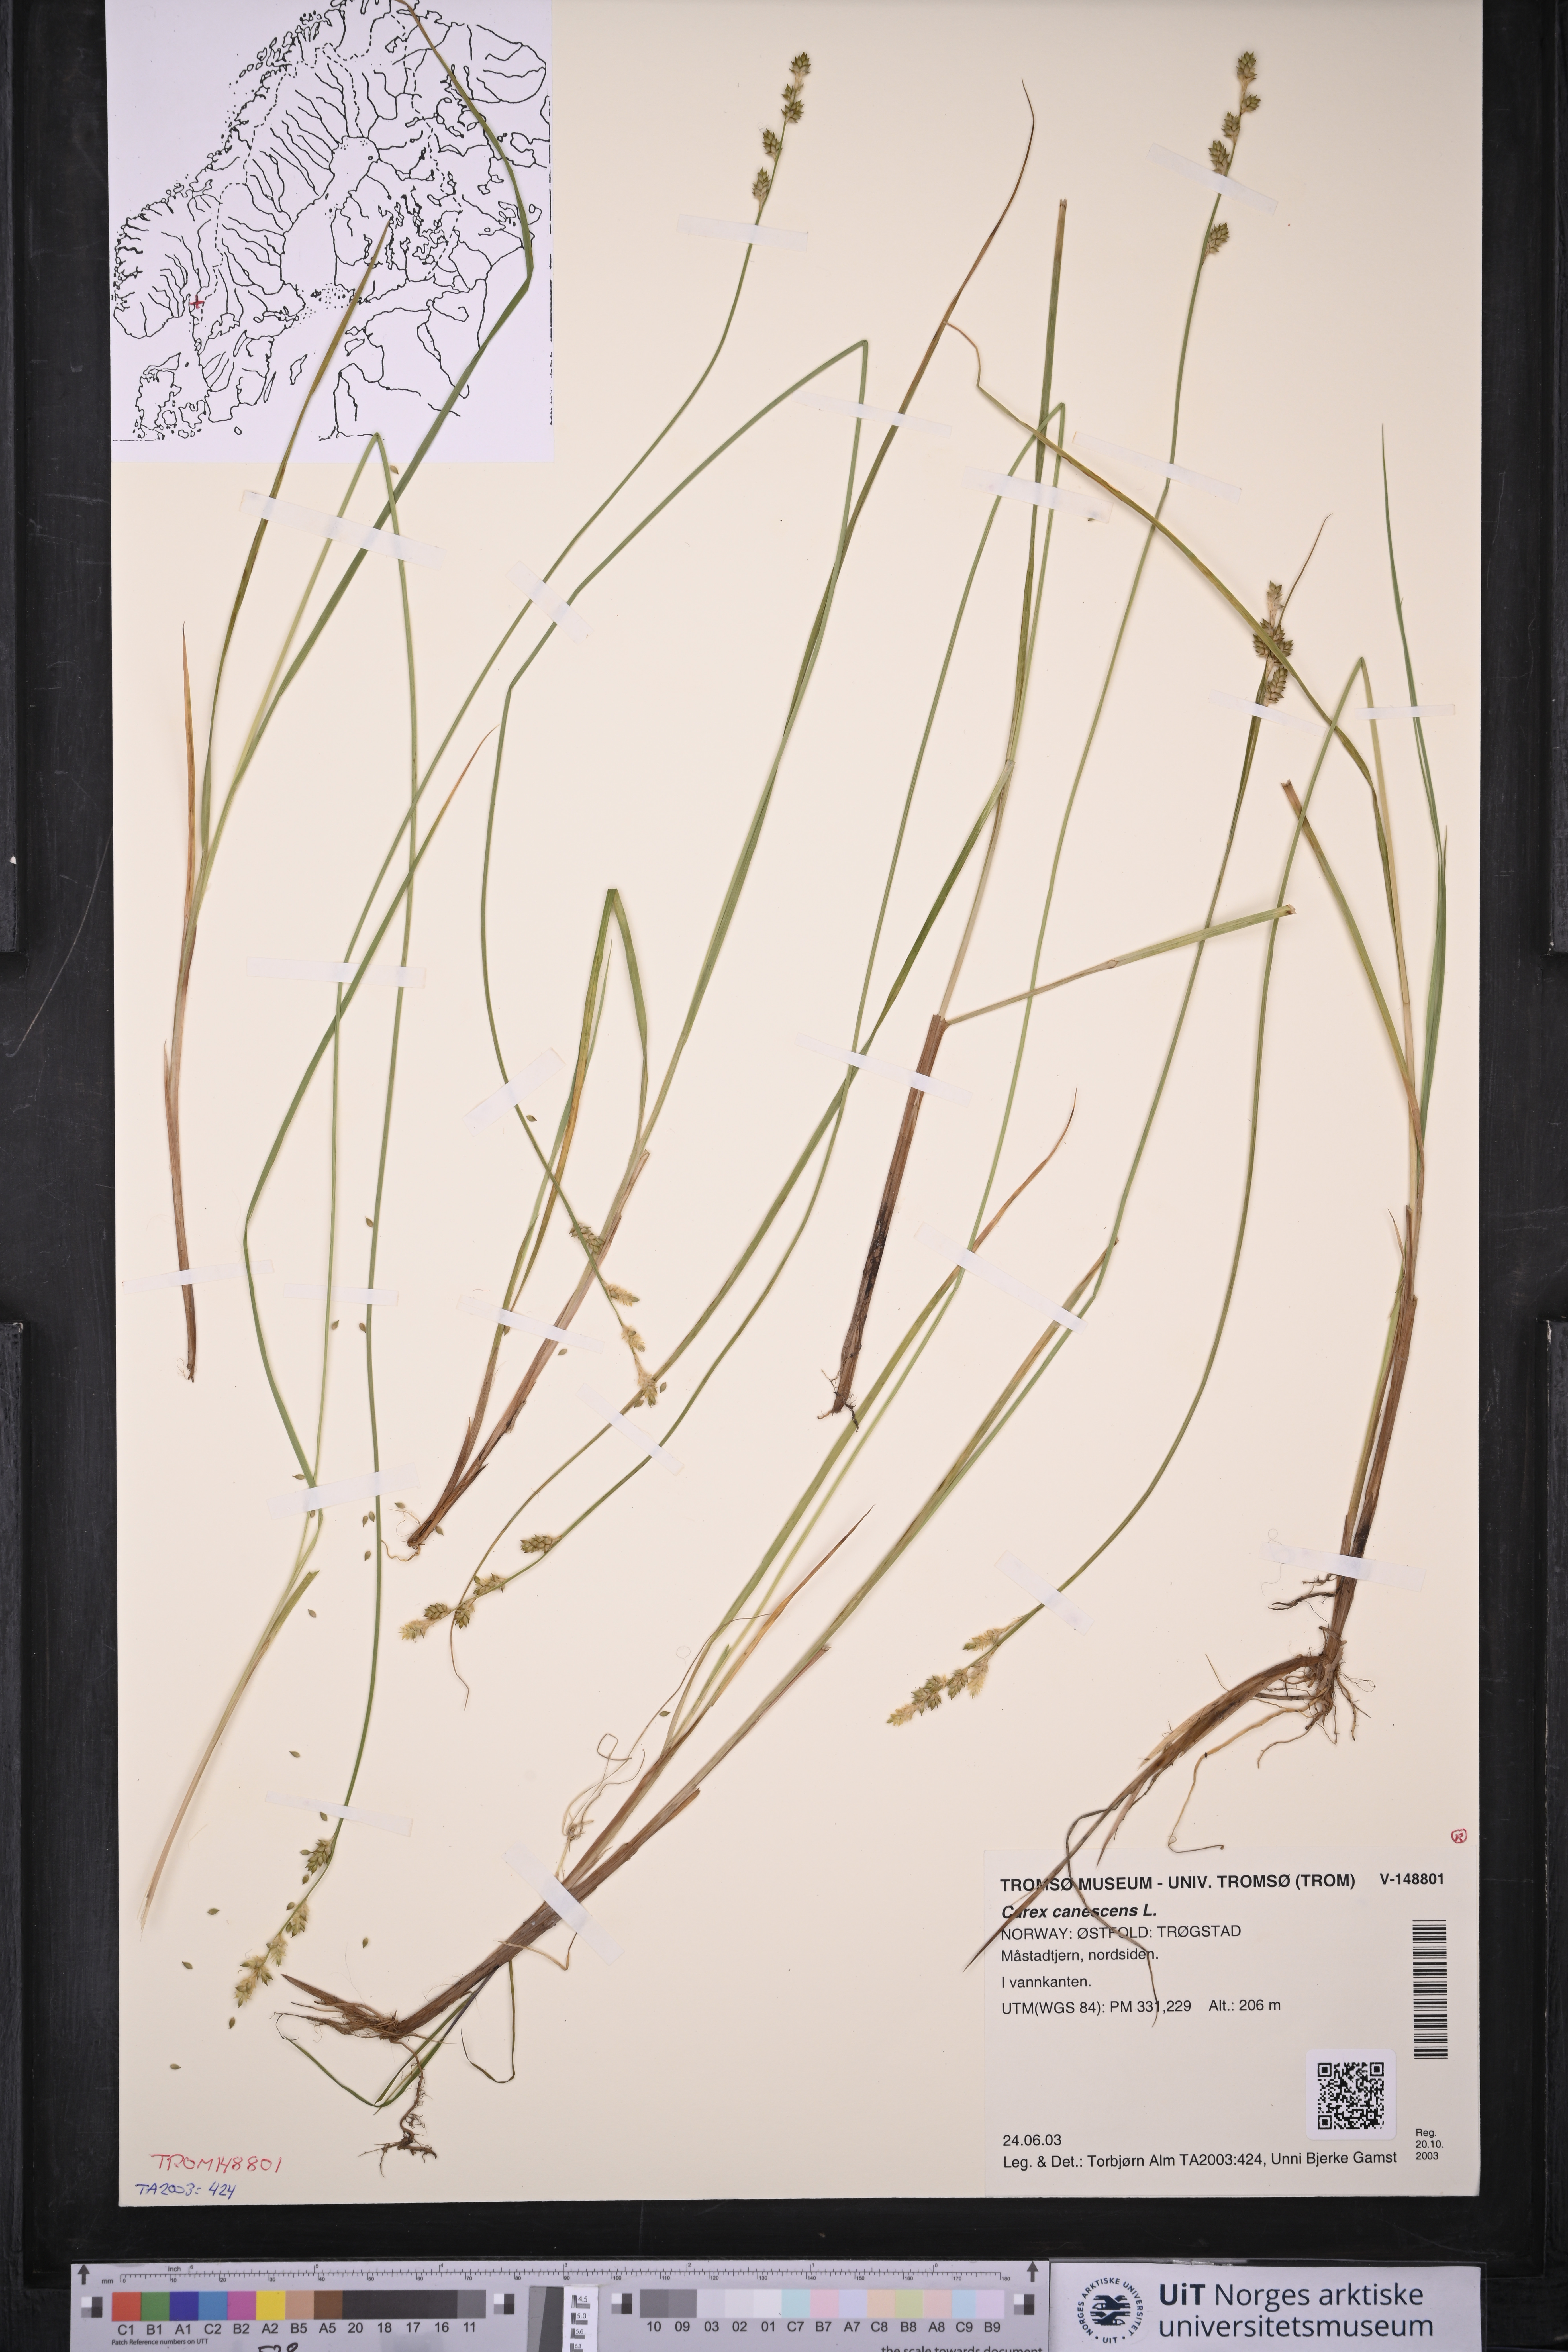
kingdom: Plantae
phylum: Tracheophyta
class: Liliopsida
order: Poales
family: Cyperaceae
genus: Carex
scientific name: Carex canescens
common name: White sedge
